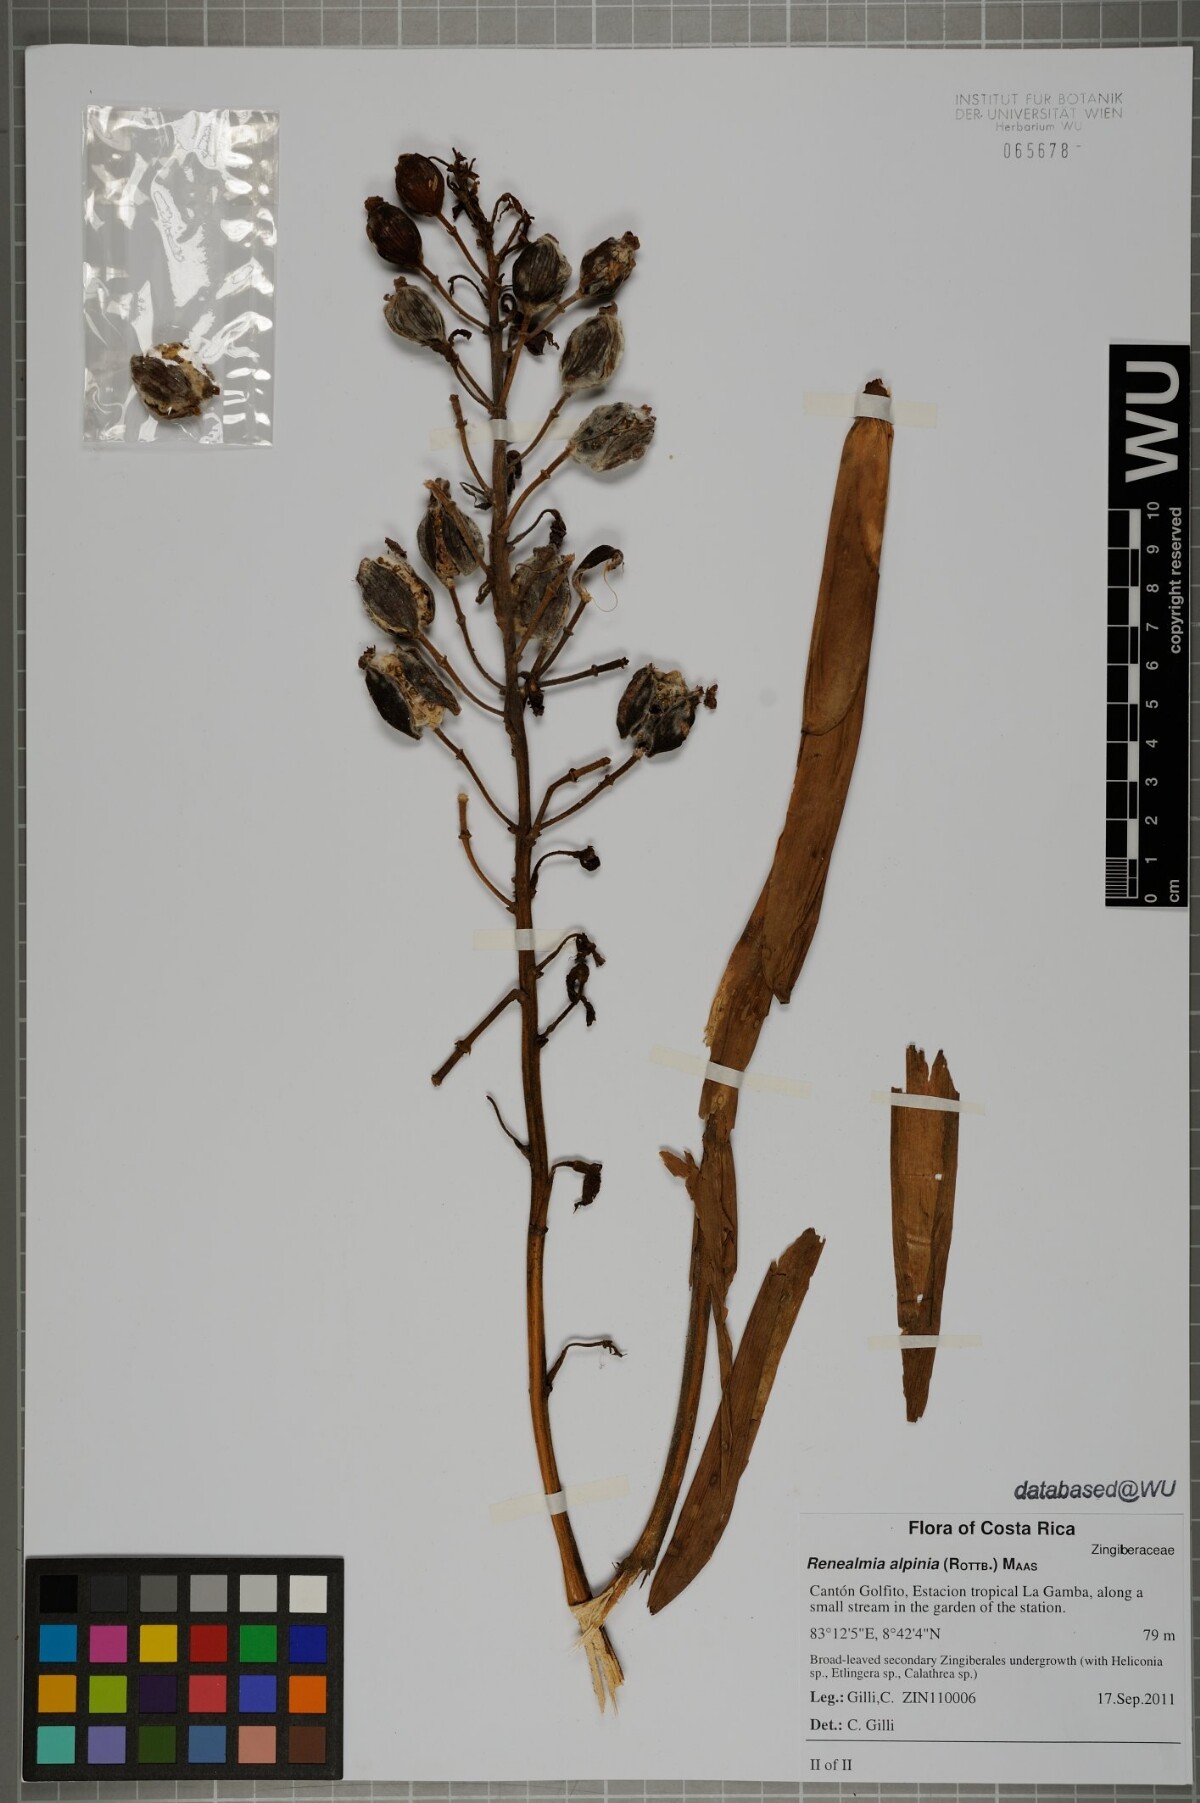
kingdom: Plantae
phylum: Tracheophyta
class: Liliopsida
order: Zingiberales
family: Zingiberaceae
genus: Renealmia
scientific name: Renealmia alpinia
